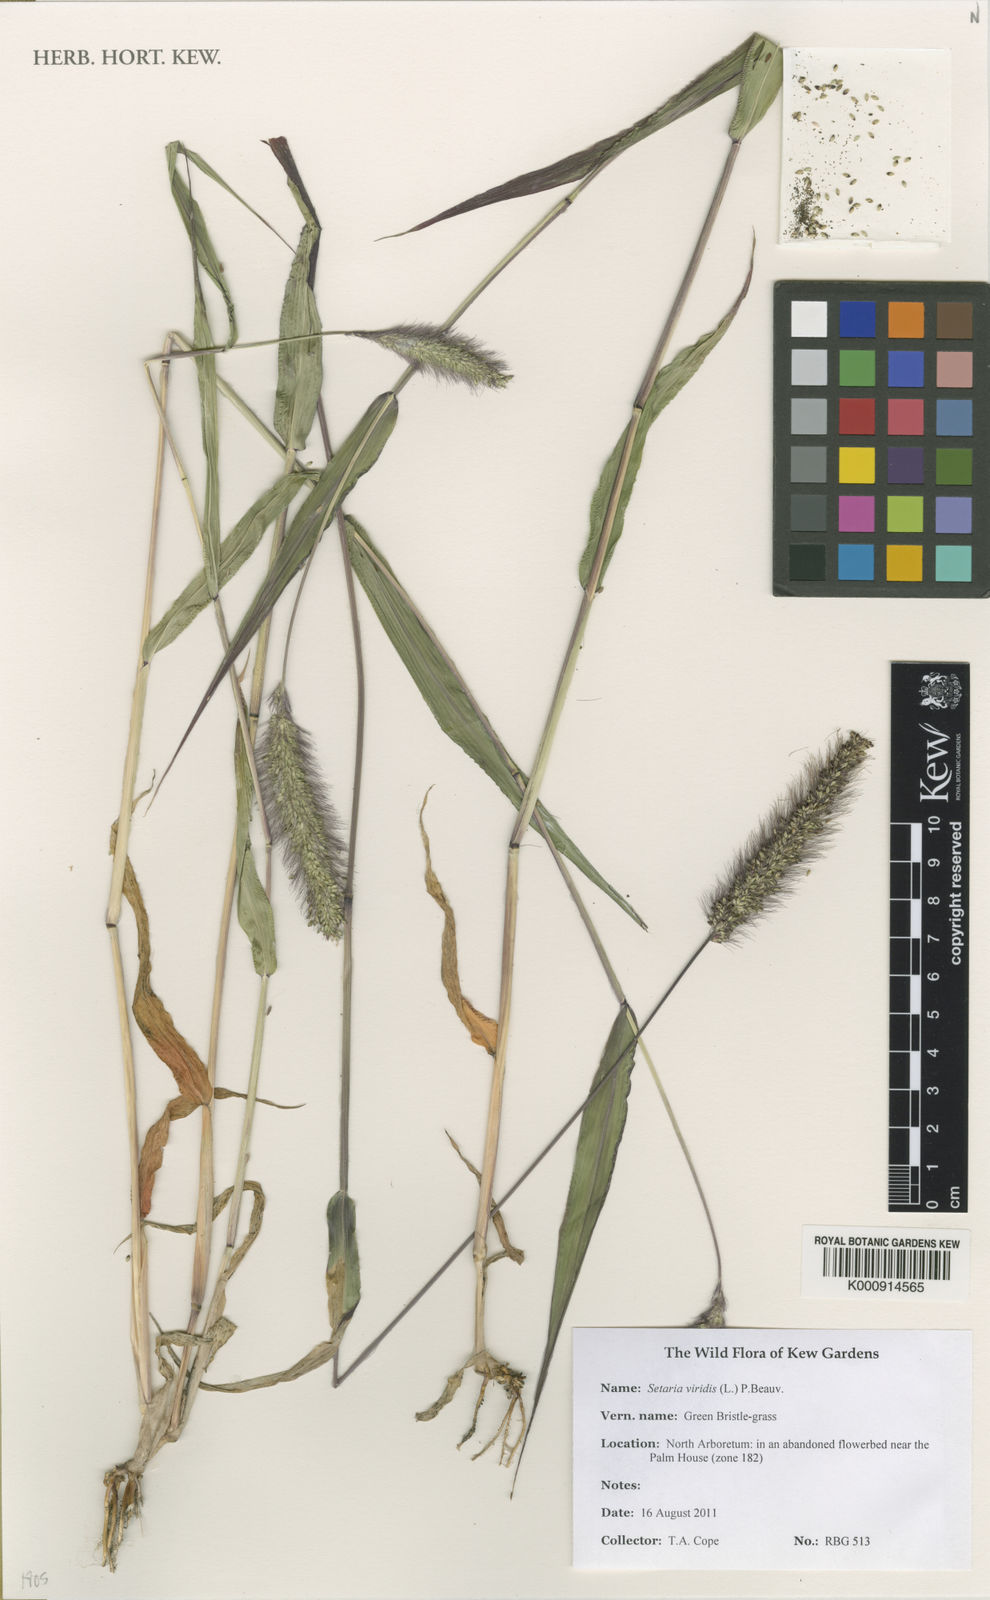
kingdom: Plantae
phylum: Tracheophyta
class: Liliopsida
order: Poales
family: Poaceae
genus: Setaria
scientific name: Setaria viridis
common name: Green bristlegrass
